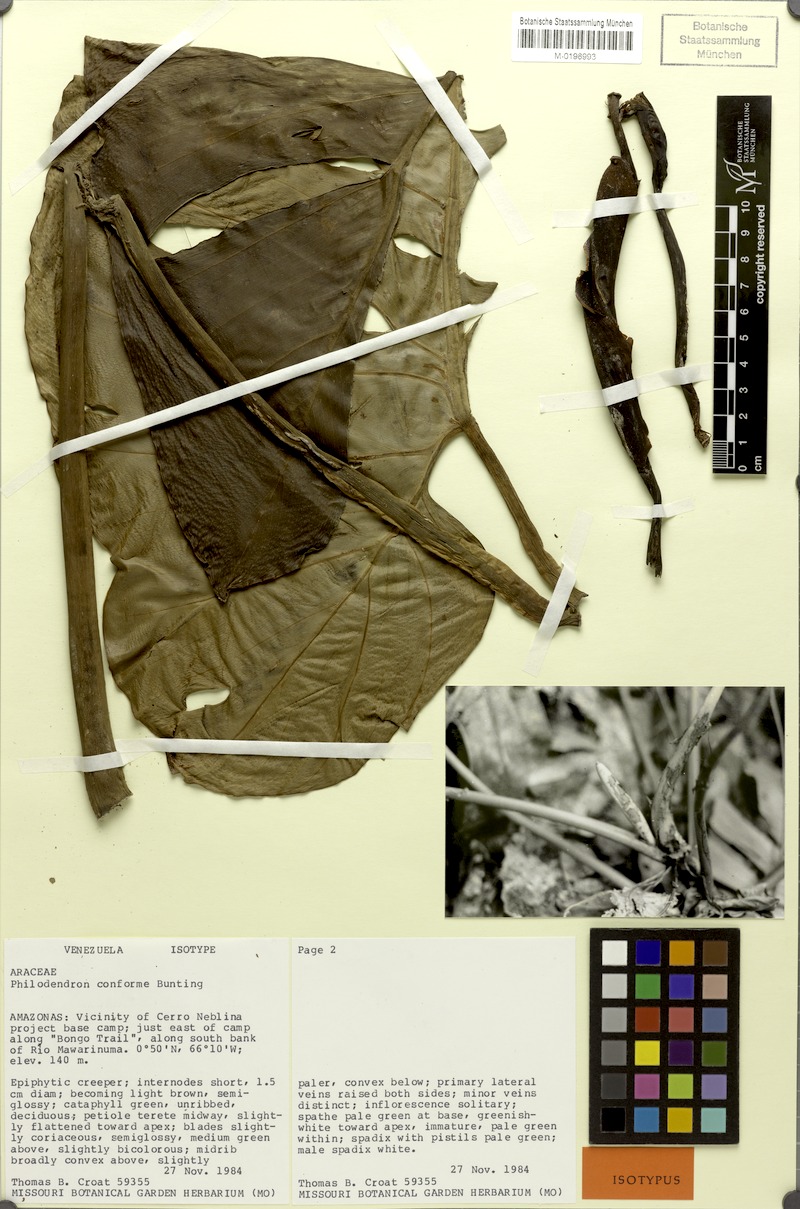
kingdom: Plantae
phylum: Tracheophyta
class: Liliopsida
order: Alismatales
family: Araceae
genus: Philodendron
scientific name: Philodendron conforme
